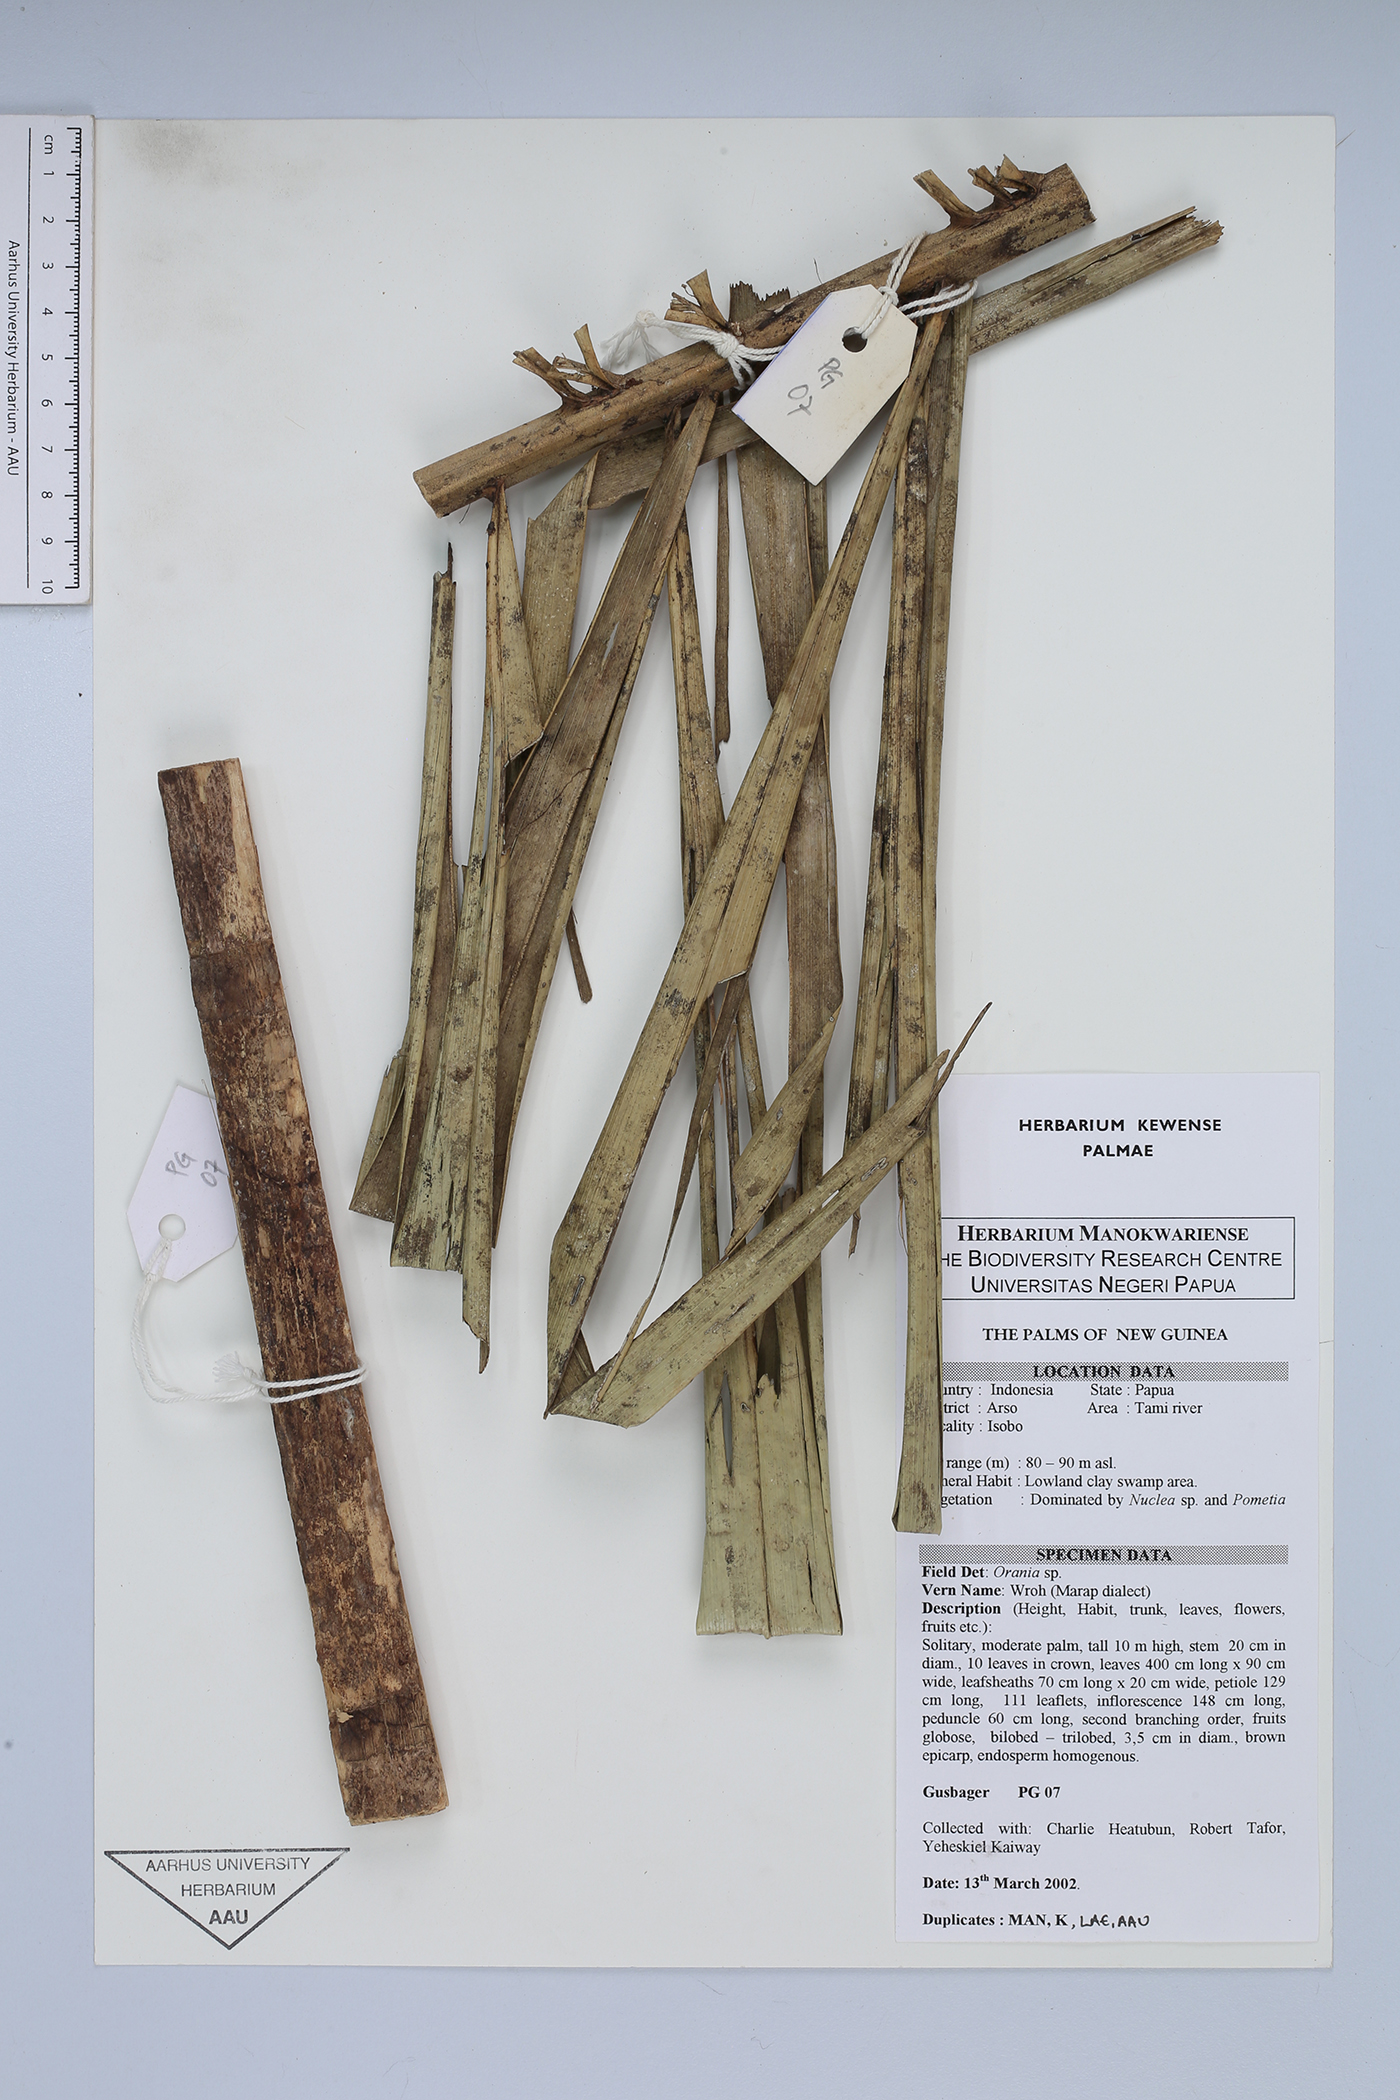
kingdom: Plantae
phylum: Tracheophyta
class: Liliopsida
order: Arecales
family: Arecaceae
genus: Orania
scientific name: Orania
